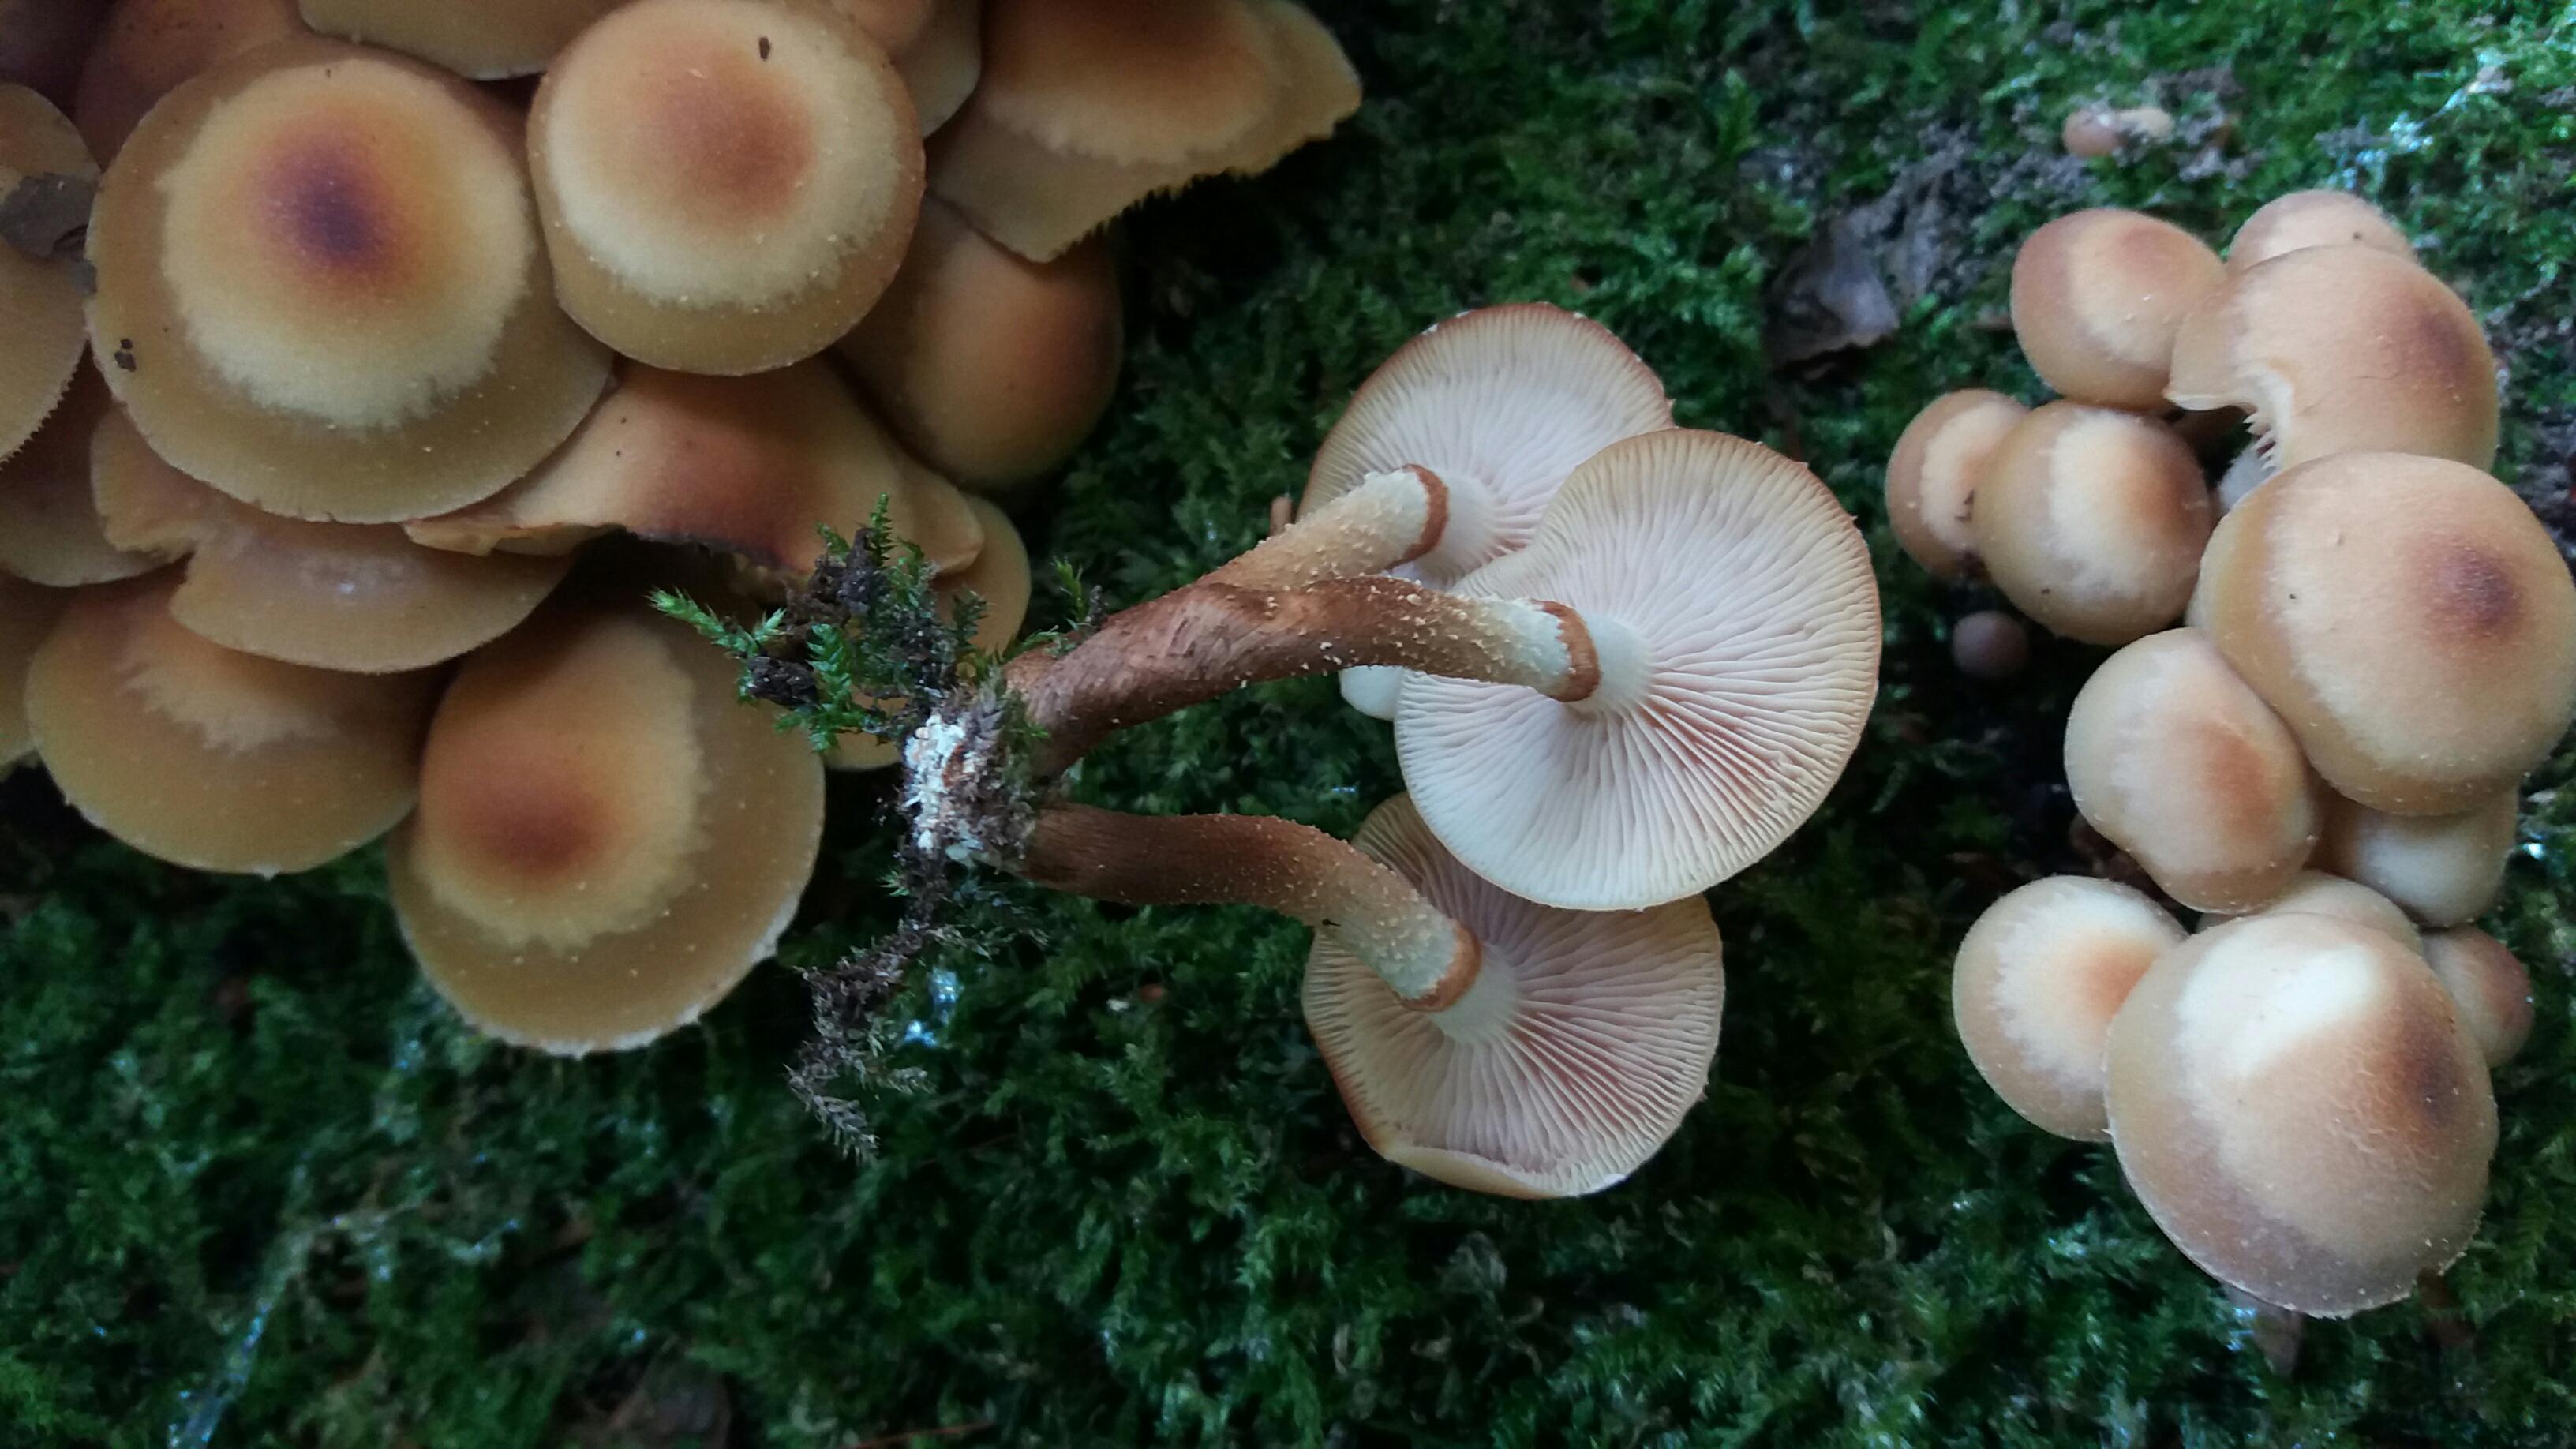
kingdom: Fungi
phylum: Basidiomycota
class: Agaricomycetes
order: Agaricales
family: Strophariaceae
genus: Kuehneromyces
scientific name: Kuehneromyces mutabilis
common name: foranderlig skælhat
